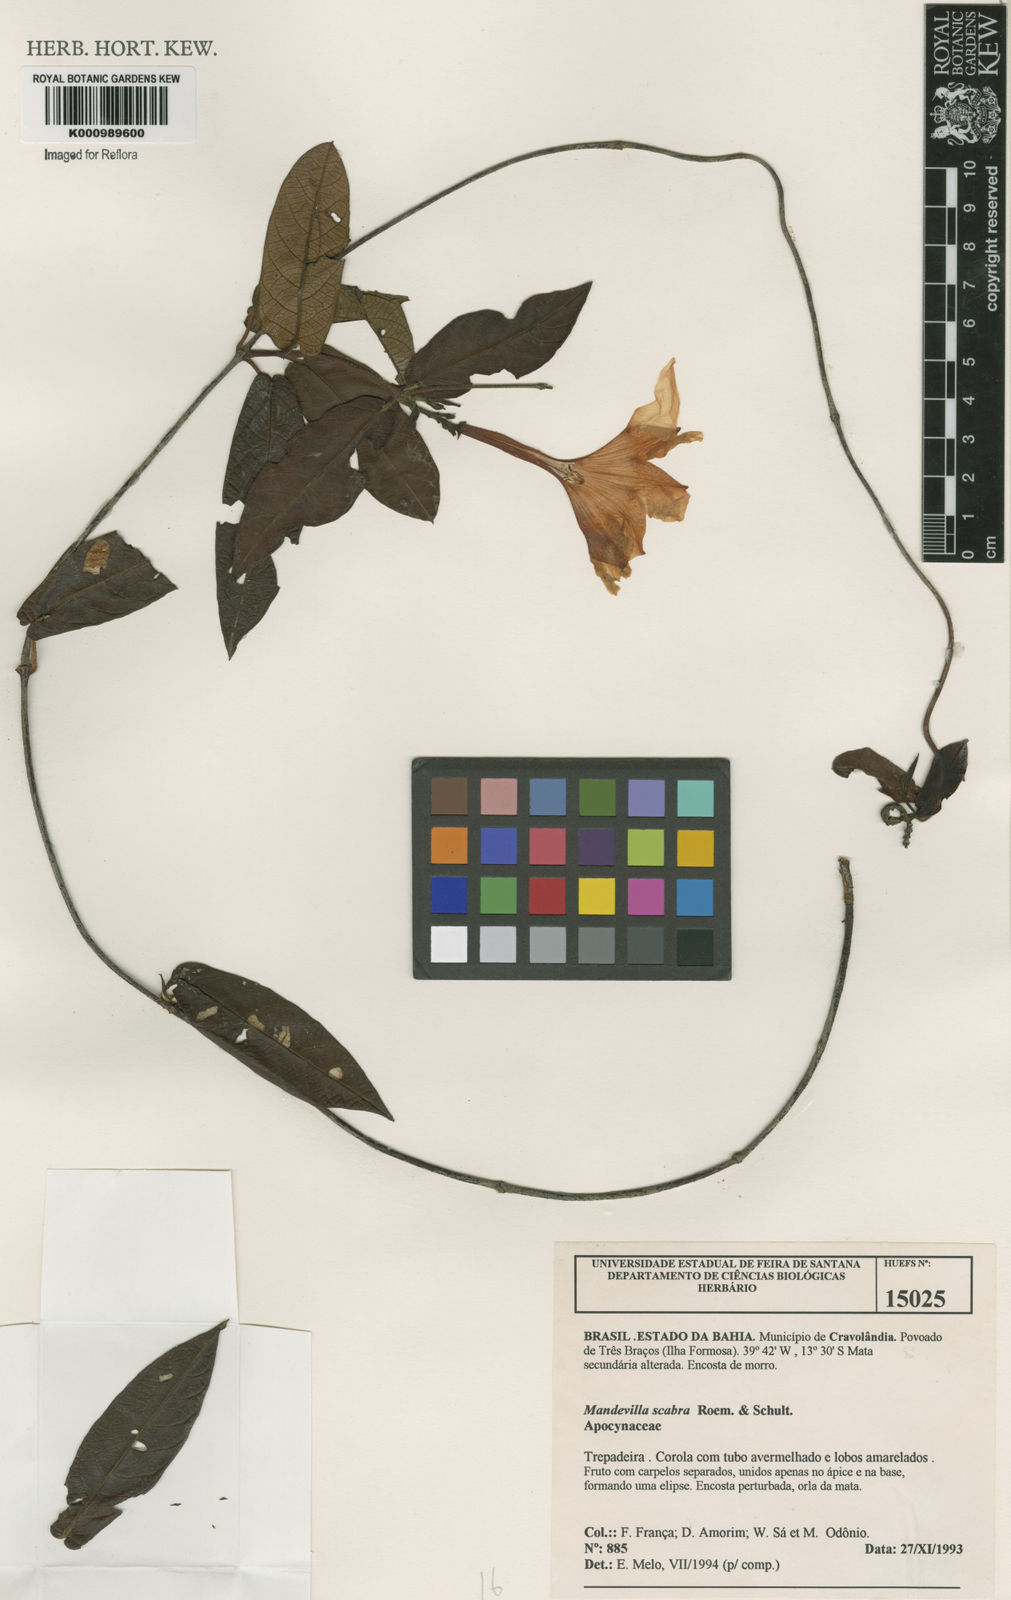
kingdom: Plantae
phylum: Tracheophyta
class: Magnoliopsida
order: Gentianales
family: Apocynaceae
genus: Mandevilla
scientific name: Mandevilla scabra
